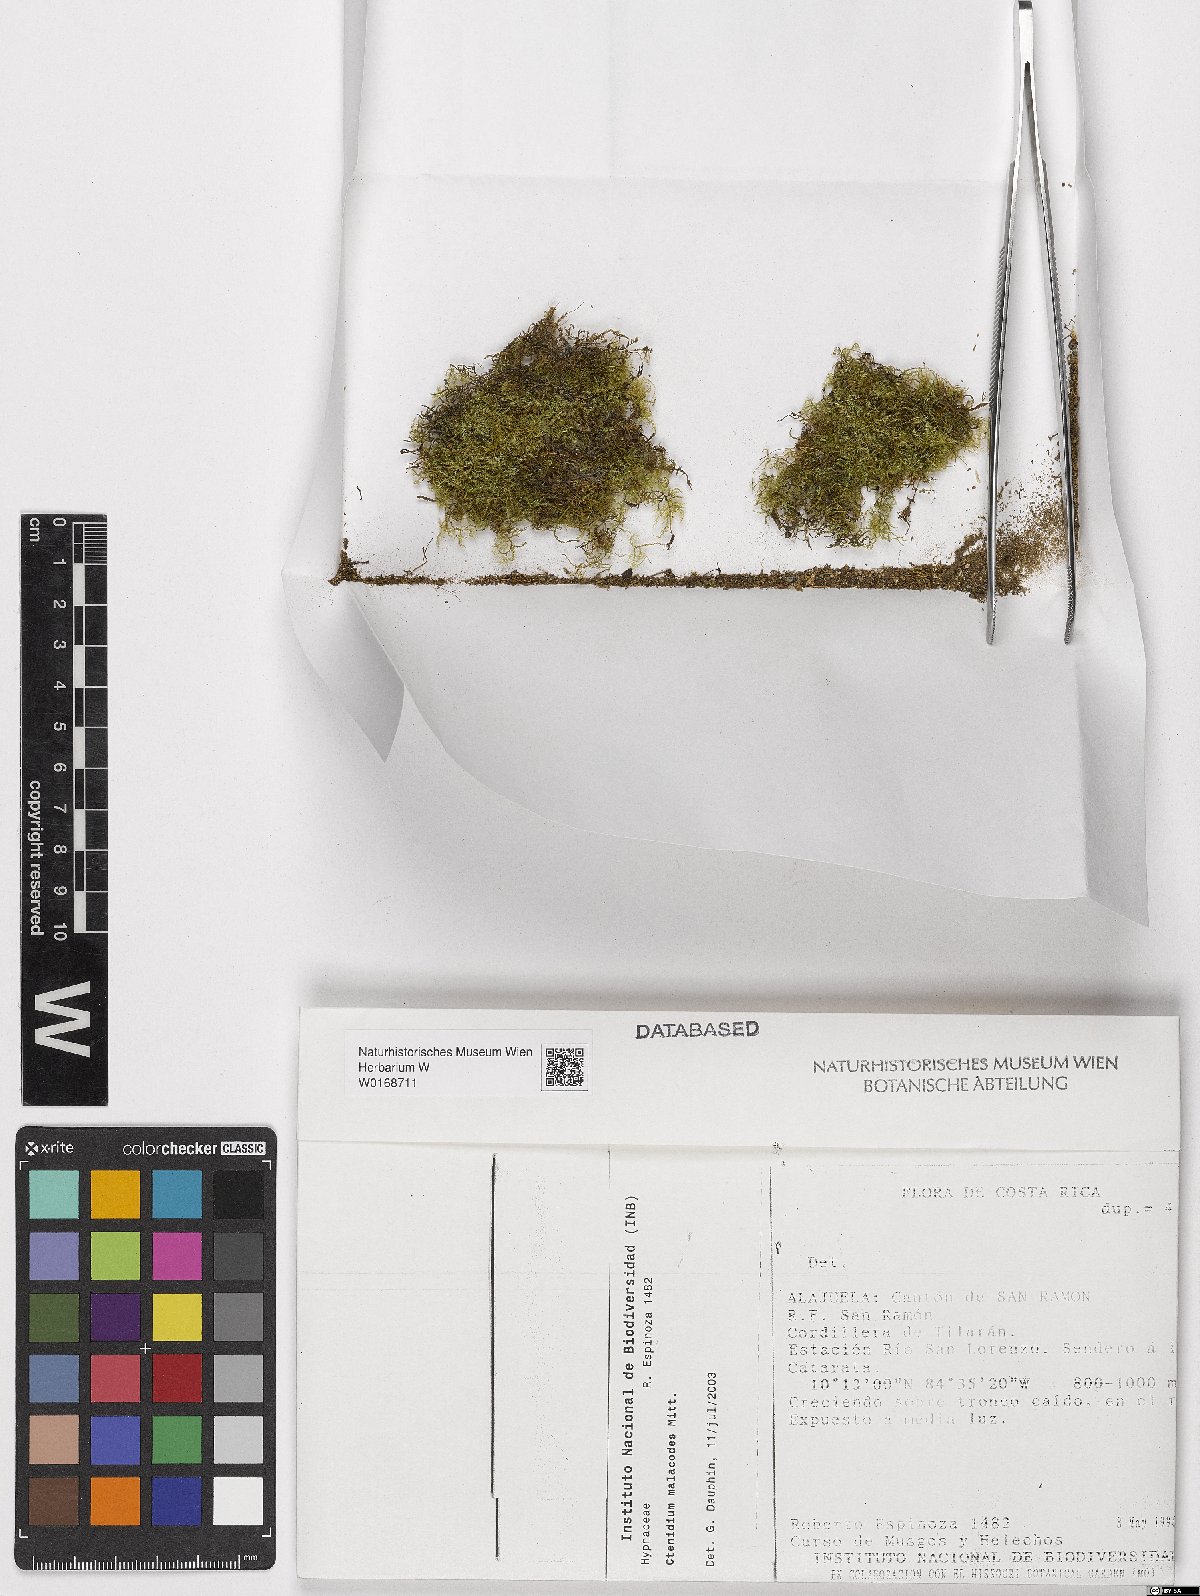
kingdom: Plantae
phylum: Bryophyta
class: Bryopsida
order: Hypnales
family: Myuriaceae
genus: Ctenidium
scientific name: Ctenidium malacodes
